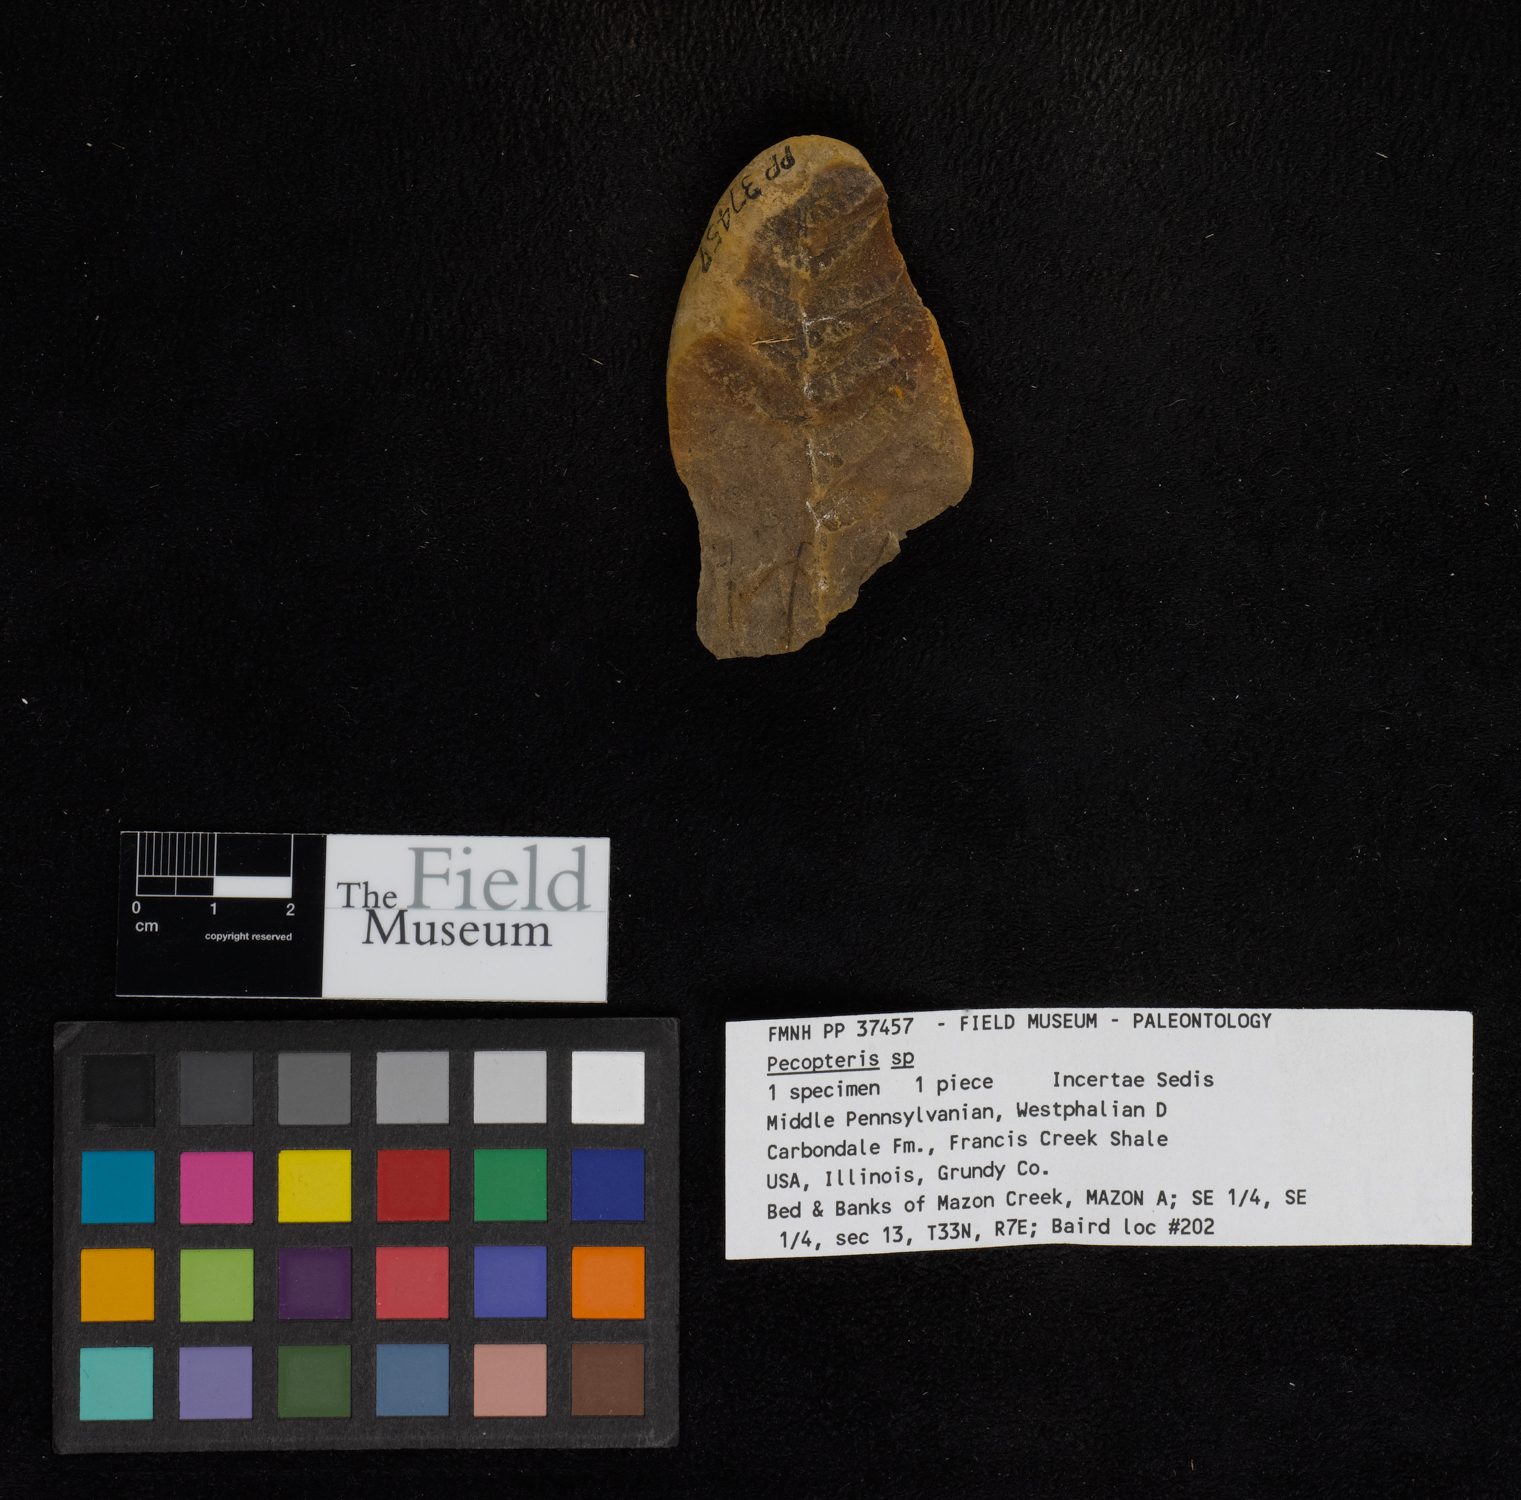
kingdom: Plantae
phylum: Tracheophyta
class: Polypodiopsida
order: Marattiales
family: Asterothecaceae
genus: Pecopteris
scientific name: Pecopteris
